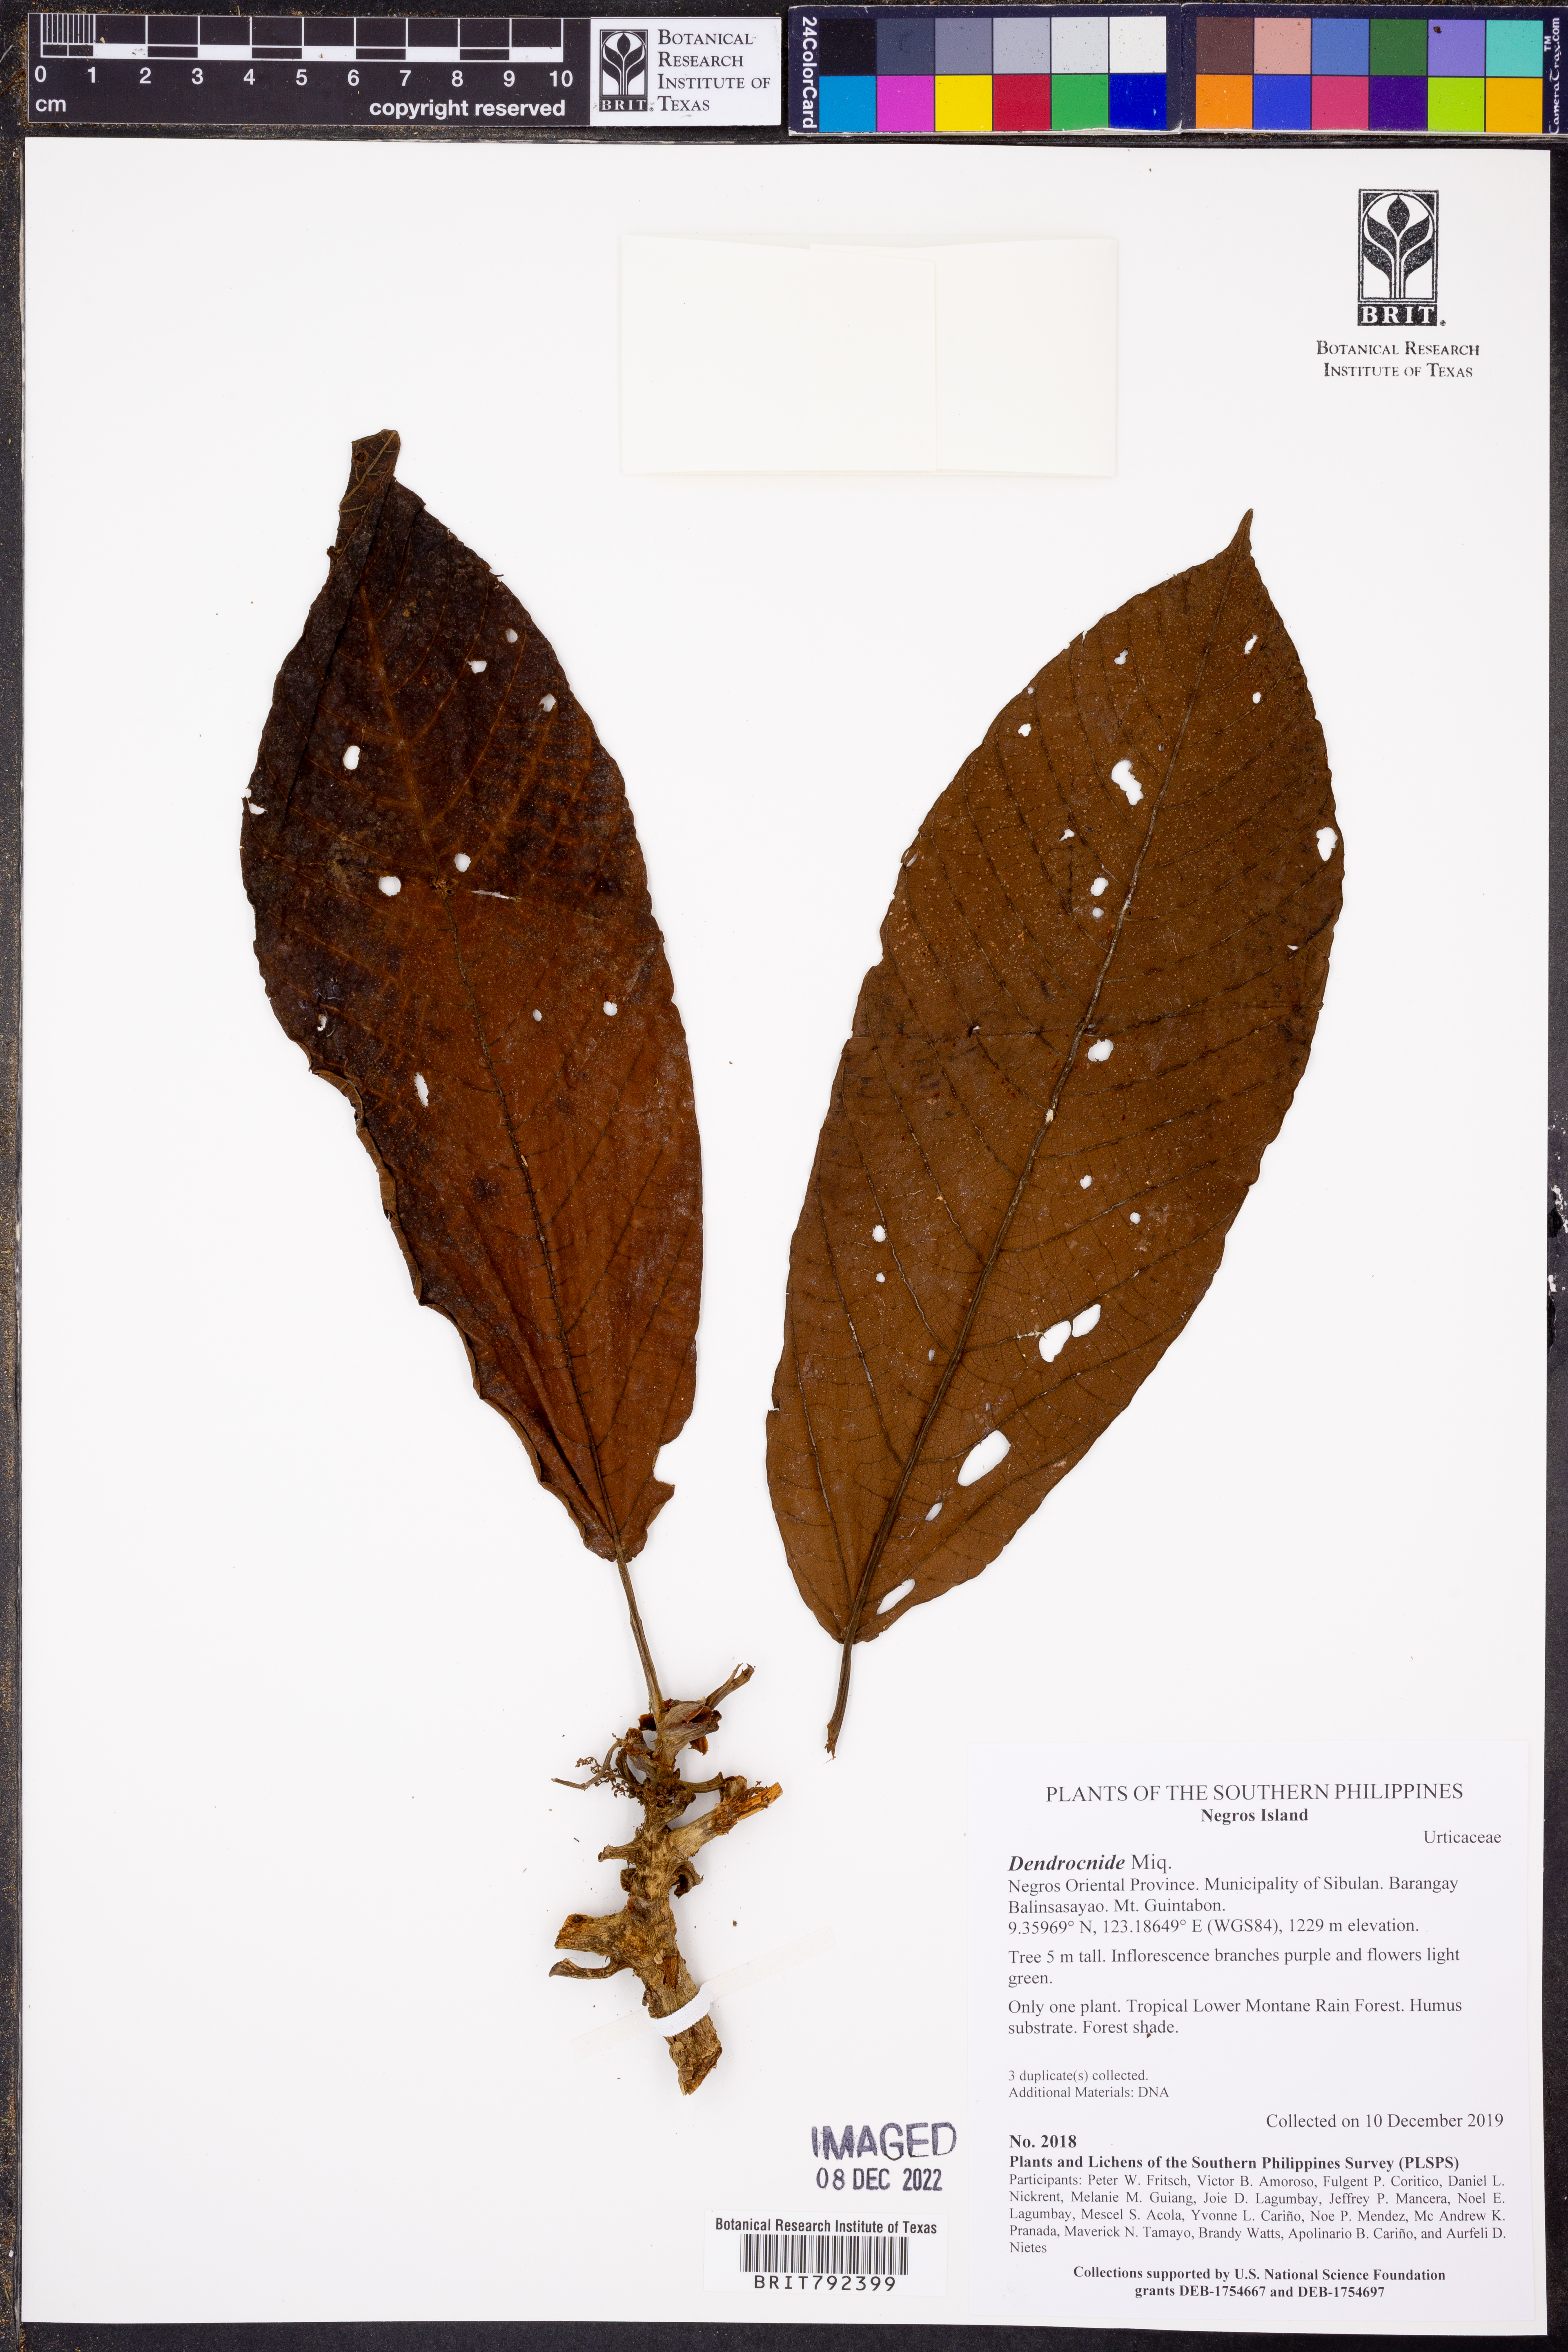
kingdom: Plantae
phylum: Tracheophyta
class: Magnoliopsida
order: Rosales
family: Urticaceae
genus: Dendrocnide
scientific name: Dendrocnide
